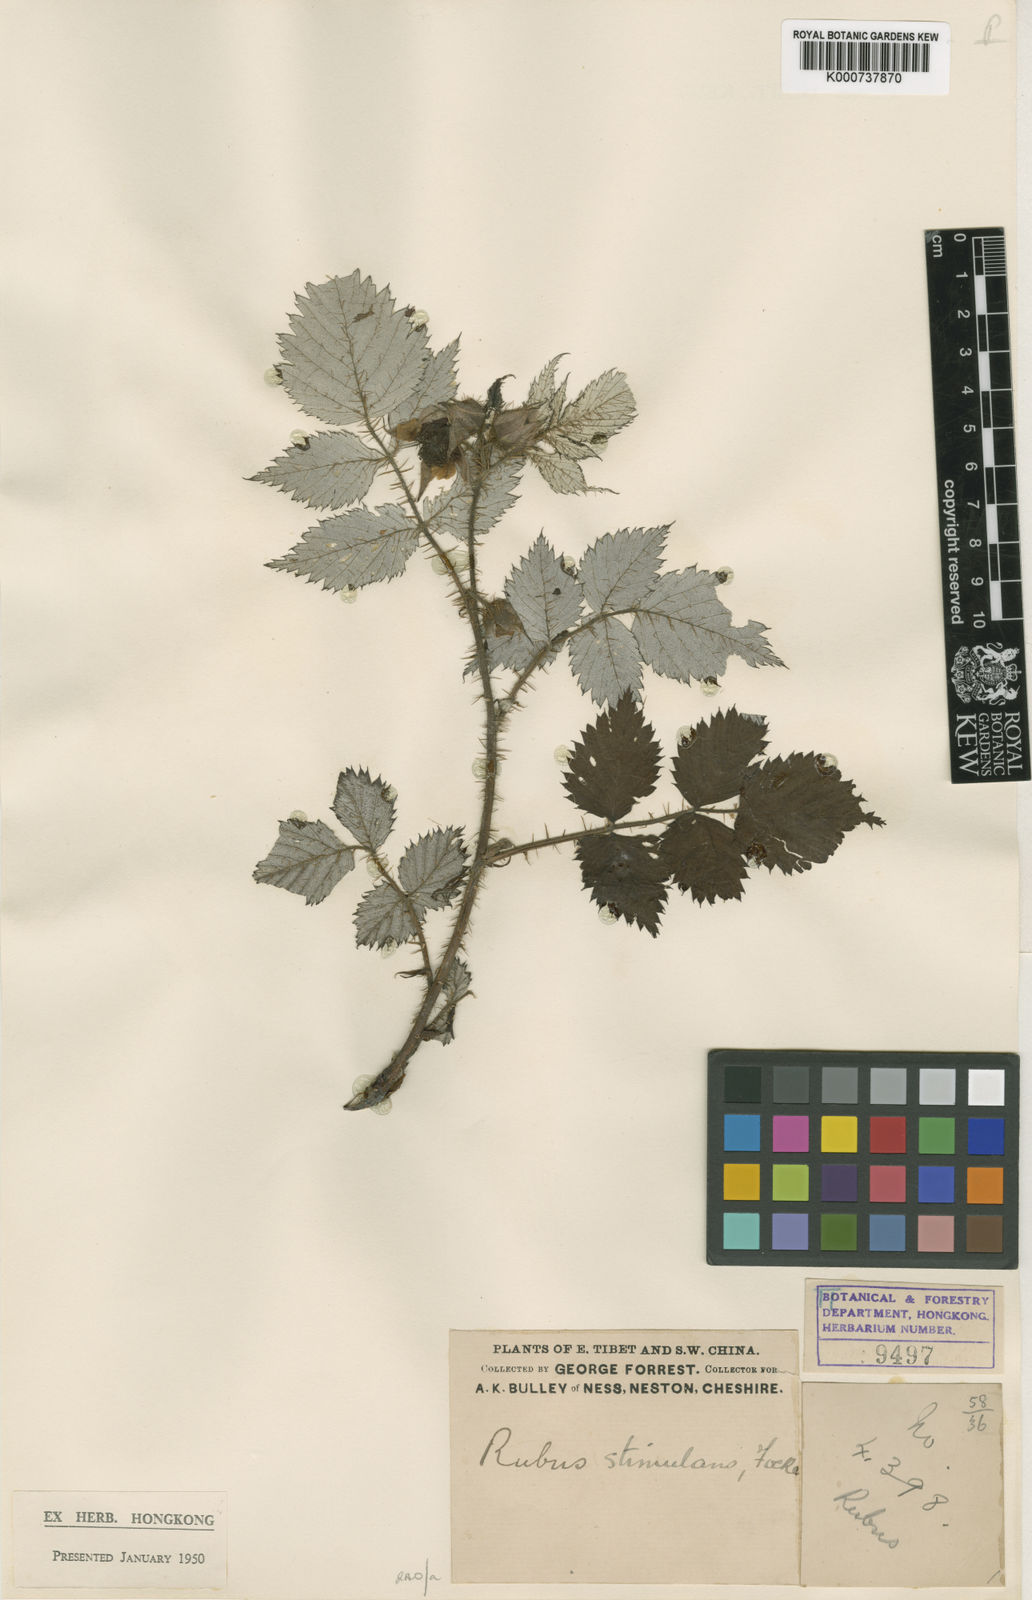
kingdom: Plantae
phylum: Tracheophyta
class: Magnoliopsida
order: Rosales
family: Rosaceae
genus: Rubus
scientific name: Rubus stimulans
